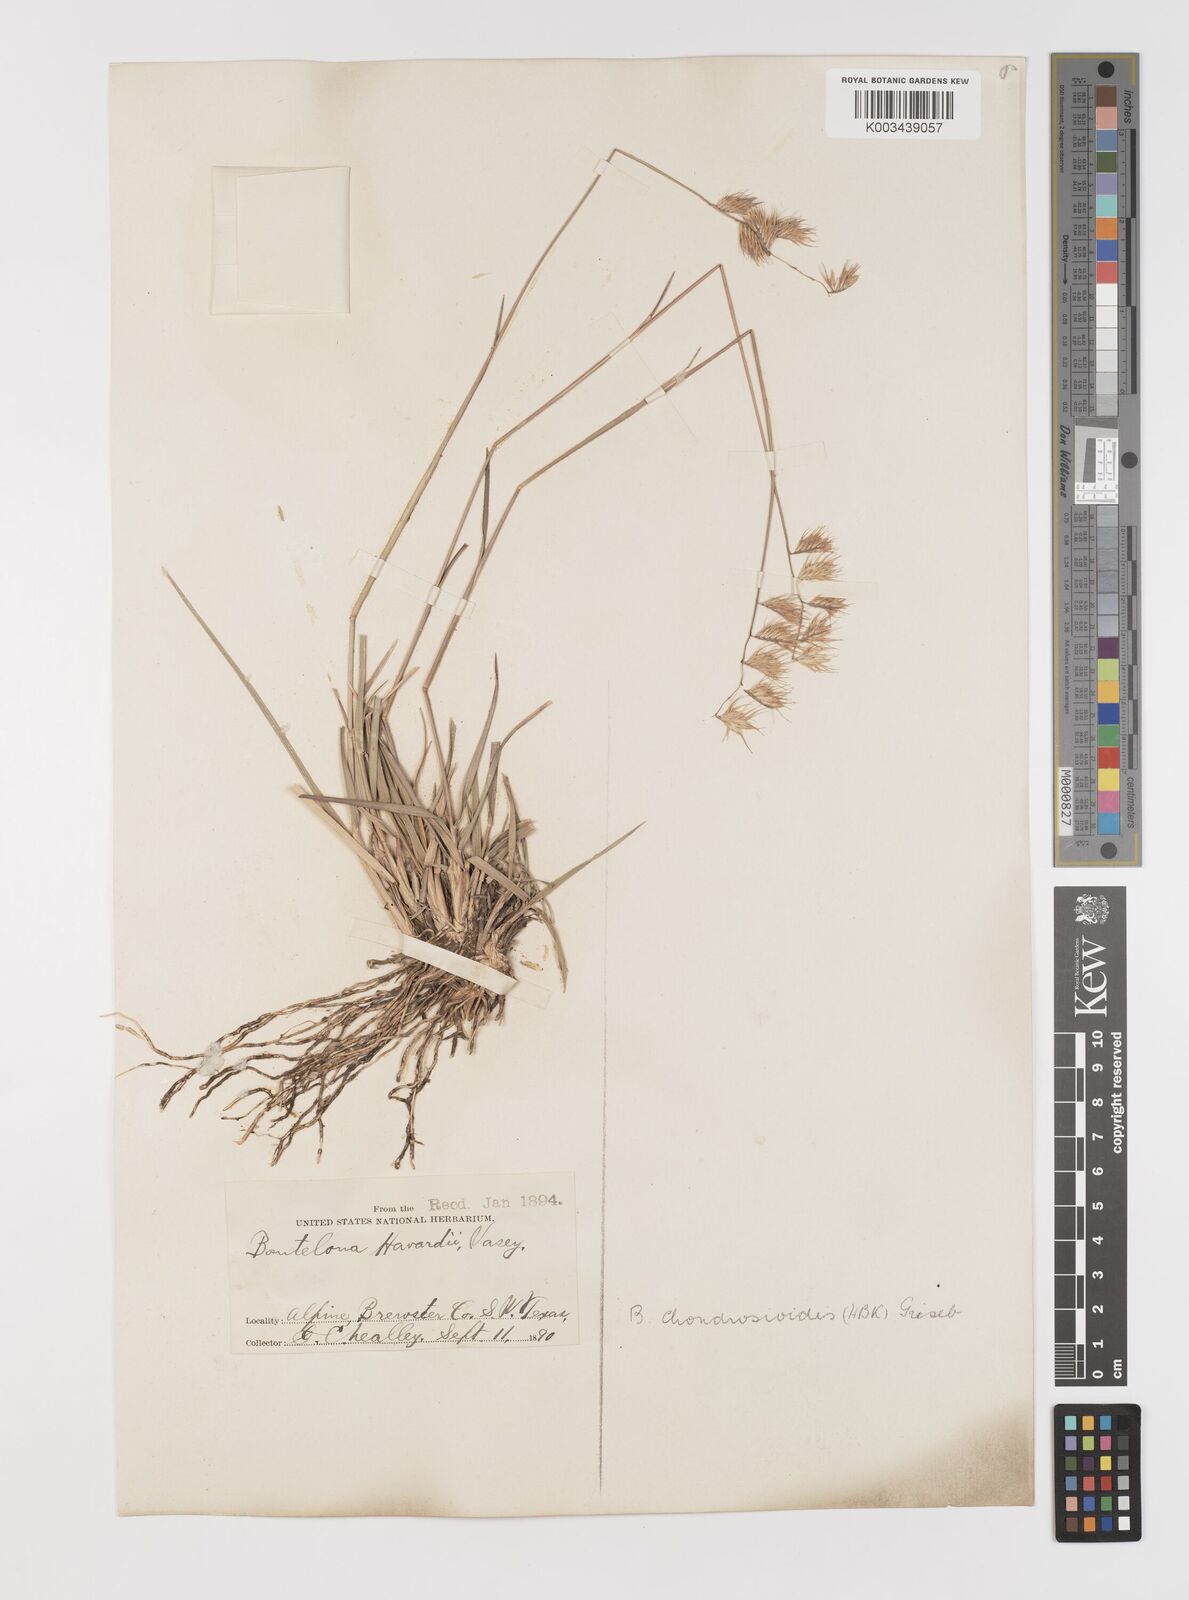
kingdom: Plantae
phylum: Tracheophyta
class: Liliopsida
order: Poales
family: Poaceae
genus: Bouteloua
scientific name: Bouteloua chondrosioides
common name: Sprucetop grama
